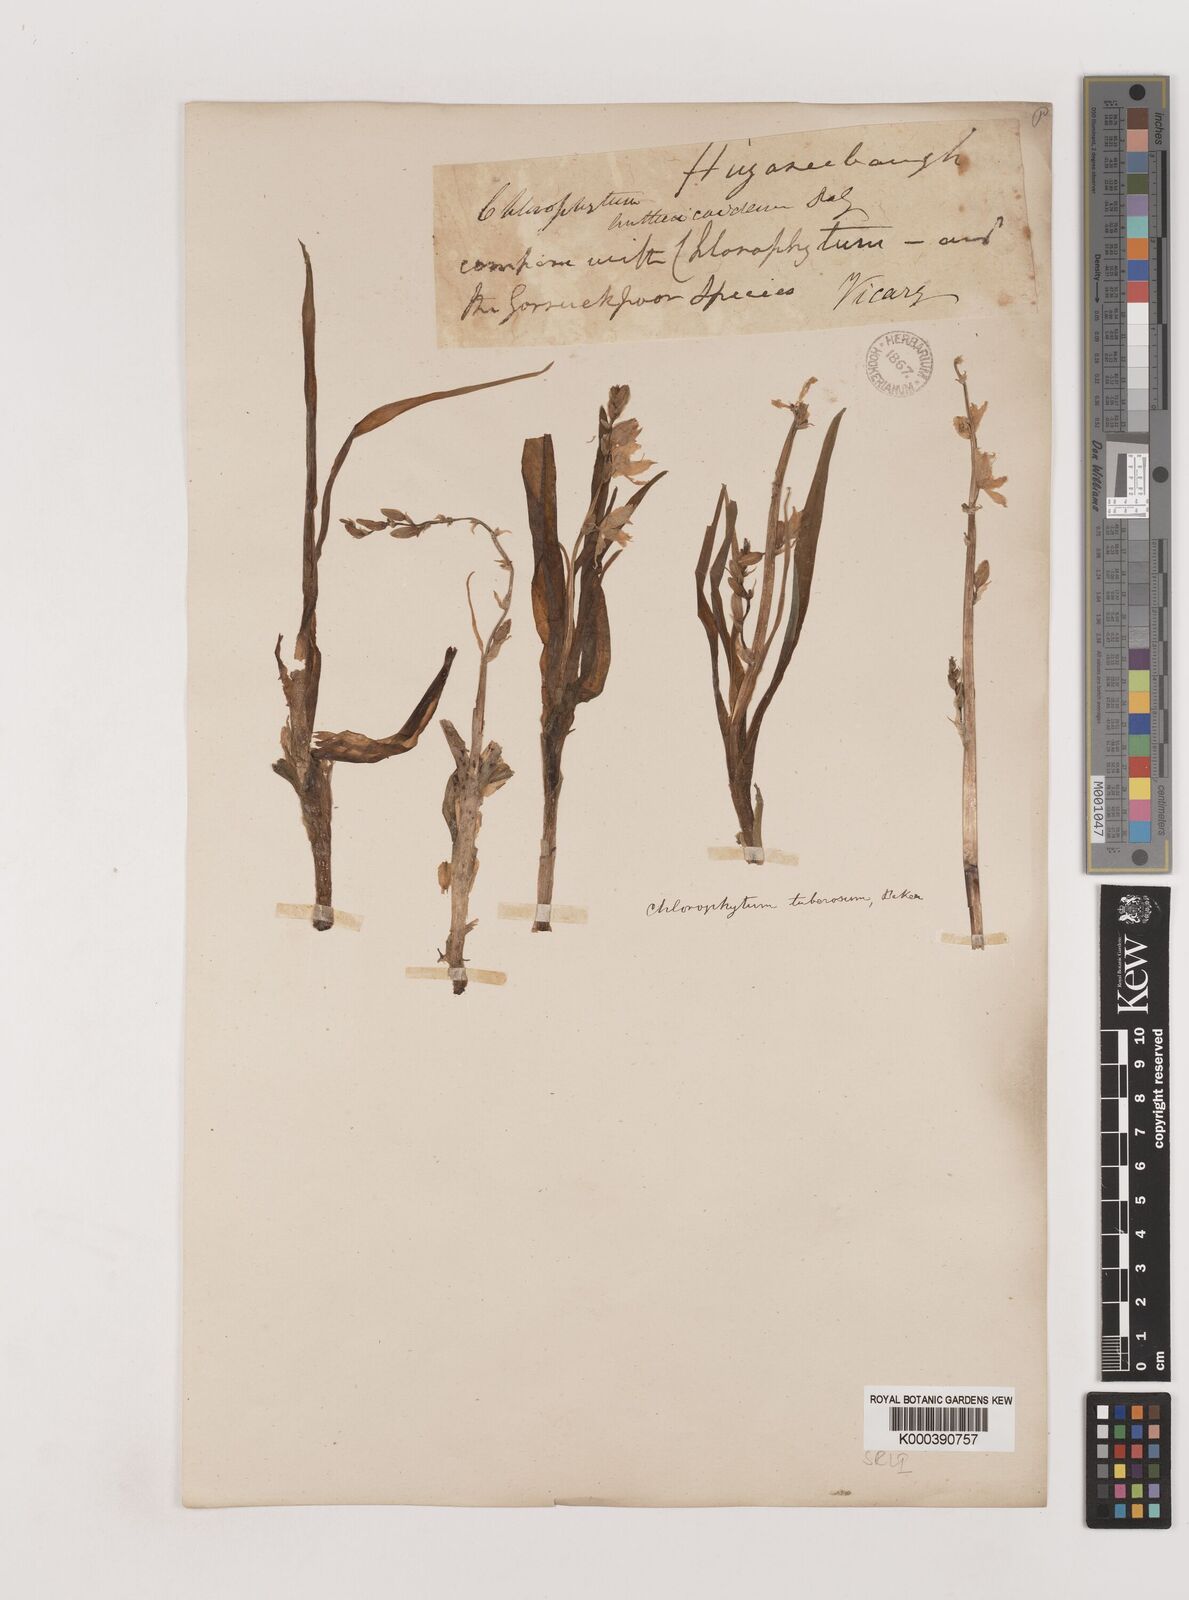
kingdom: Plantae
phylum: Tracheophyta
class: Liliopsida
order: Asparagales
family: Asparagaceae
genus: Chlorophytum
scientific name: Chlorophytum tuberosum
